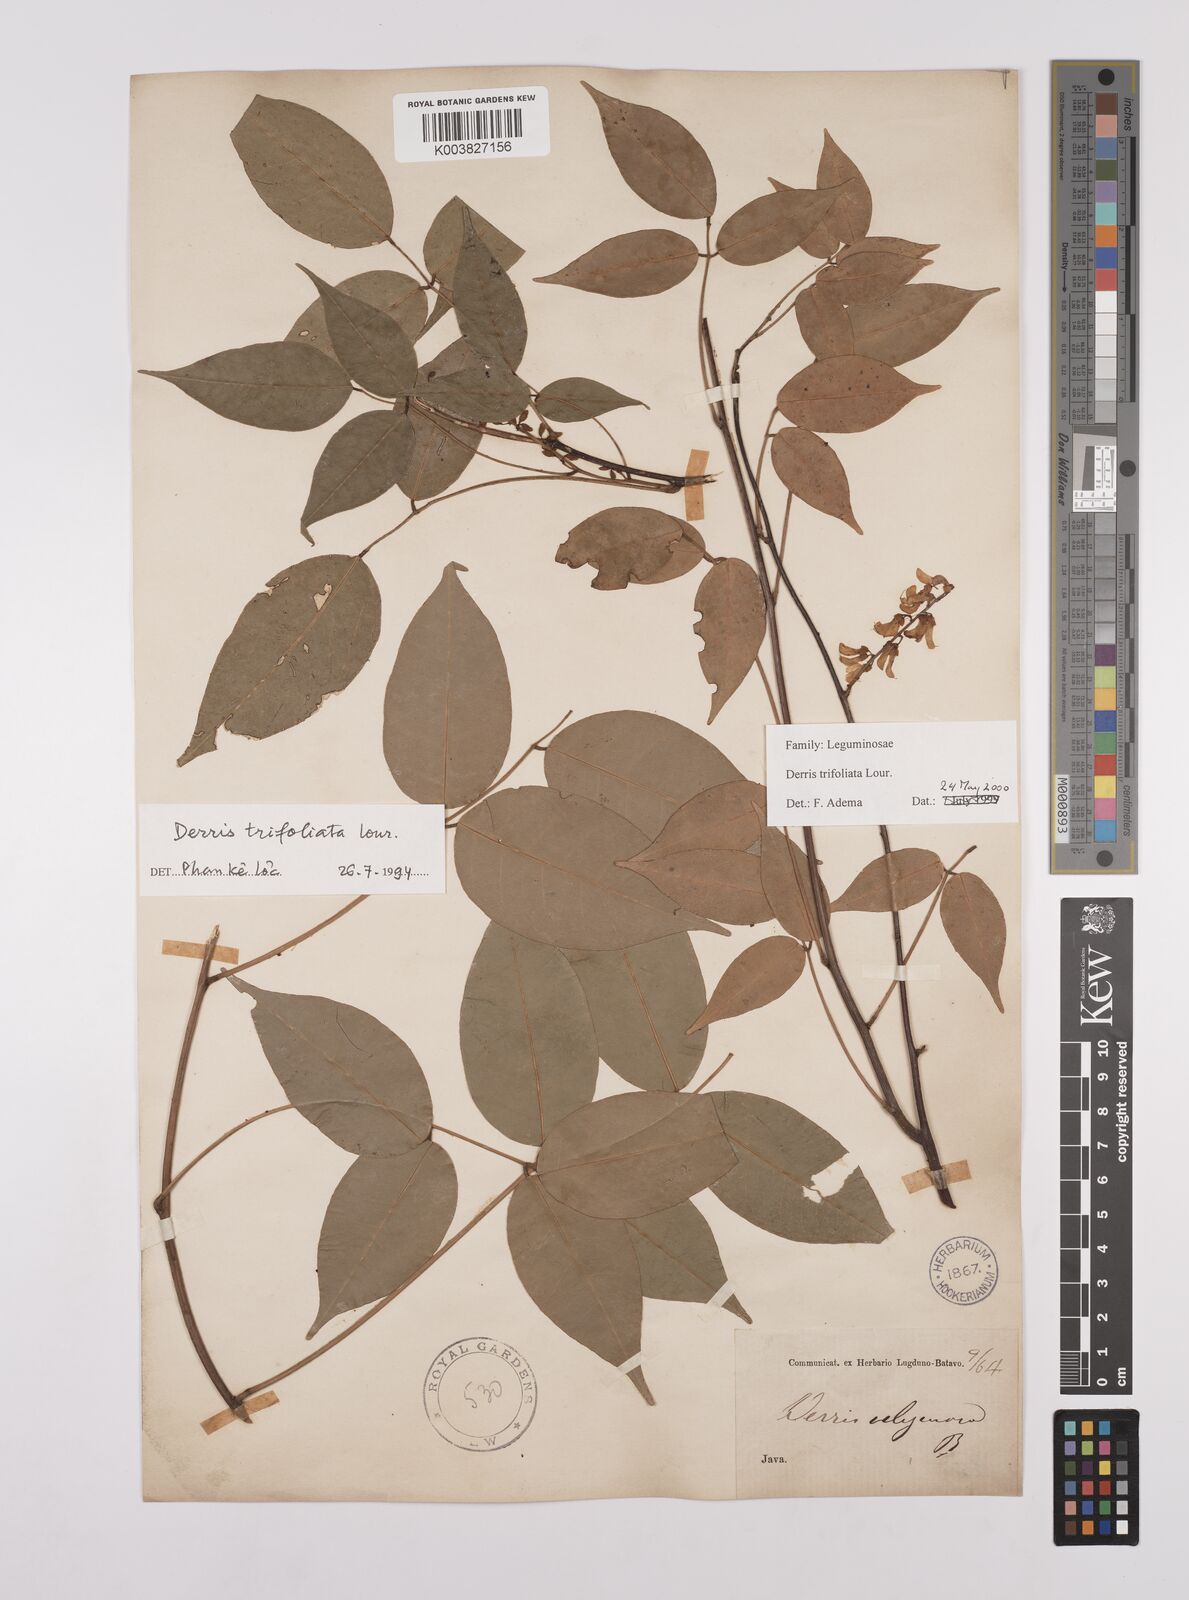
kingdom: Plantae
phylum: Tracheophyta
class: Magnoliopsida
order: Fabales
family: Fabaceae
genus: Derris
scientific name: Derris trifoliata
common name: Three-leaf derris
